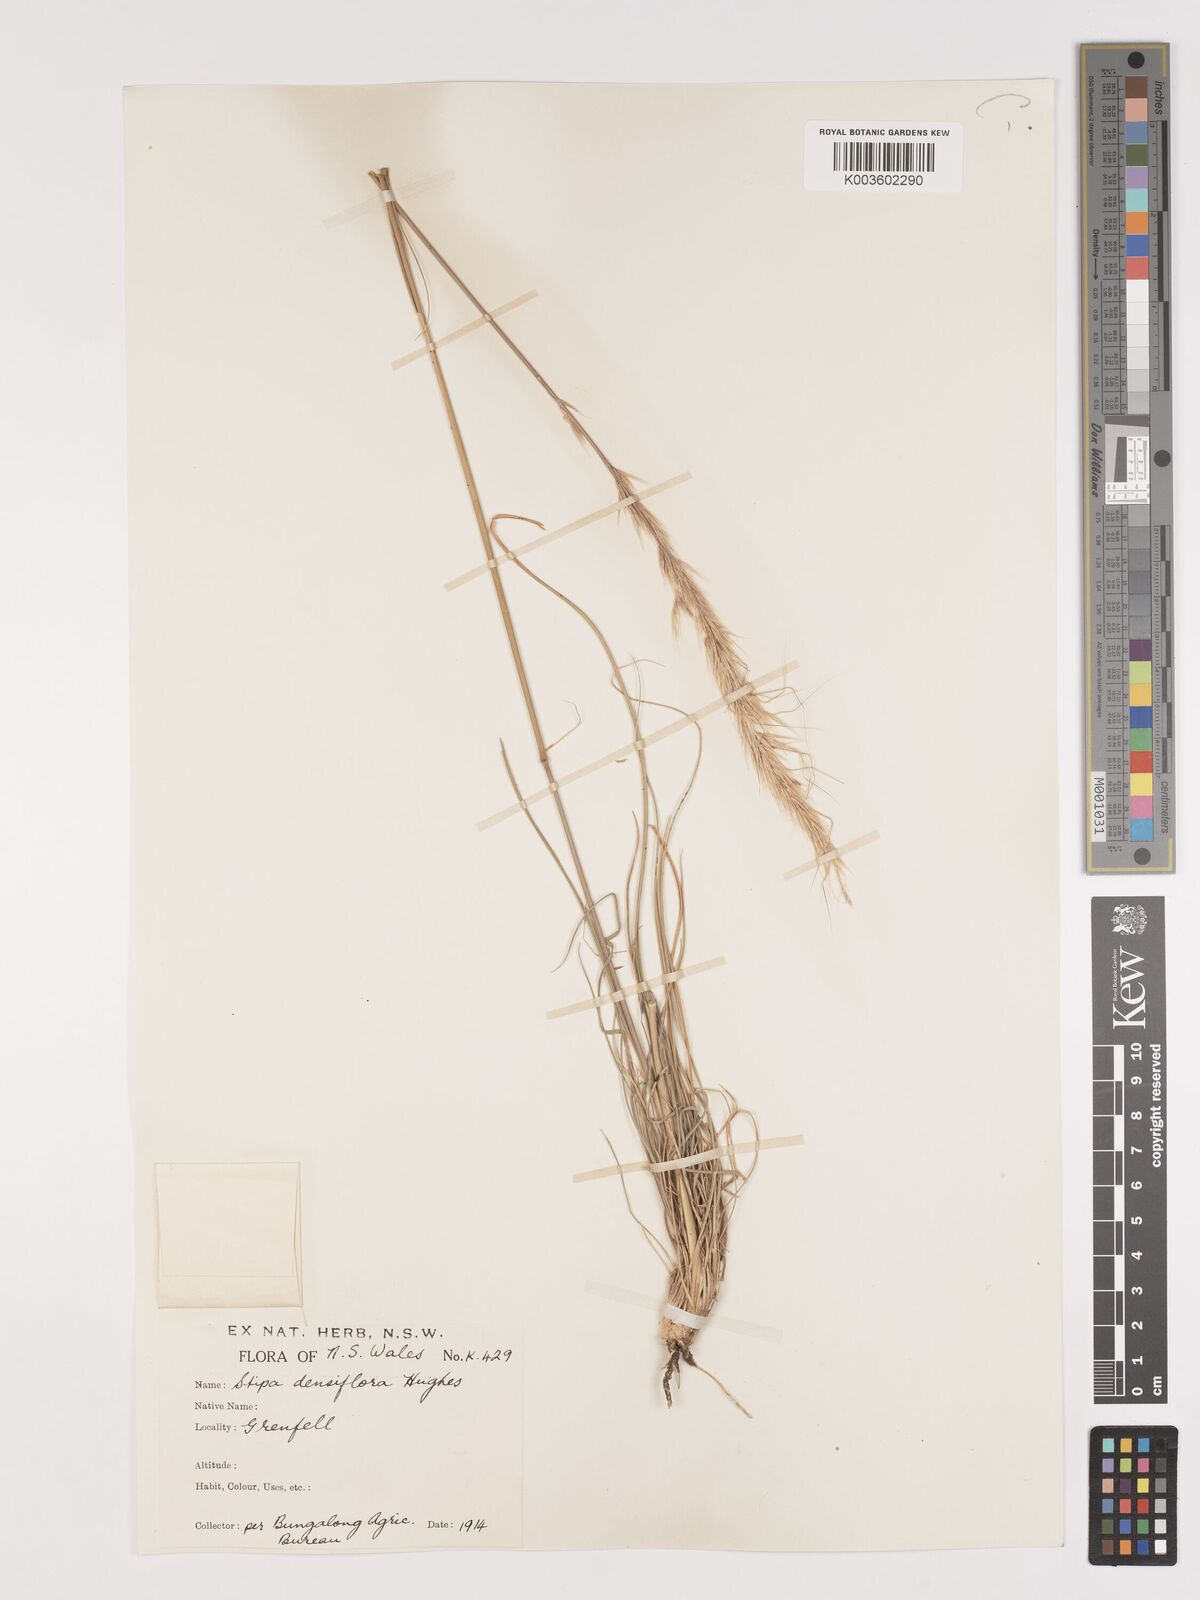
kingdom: Plantae
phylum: Tracheophyta
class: Liliopsida
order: Poales
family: Poaceae
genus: Stipa
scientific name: Stipa
